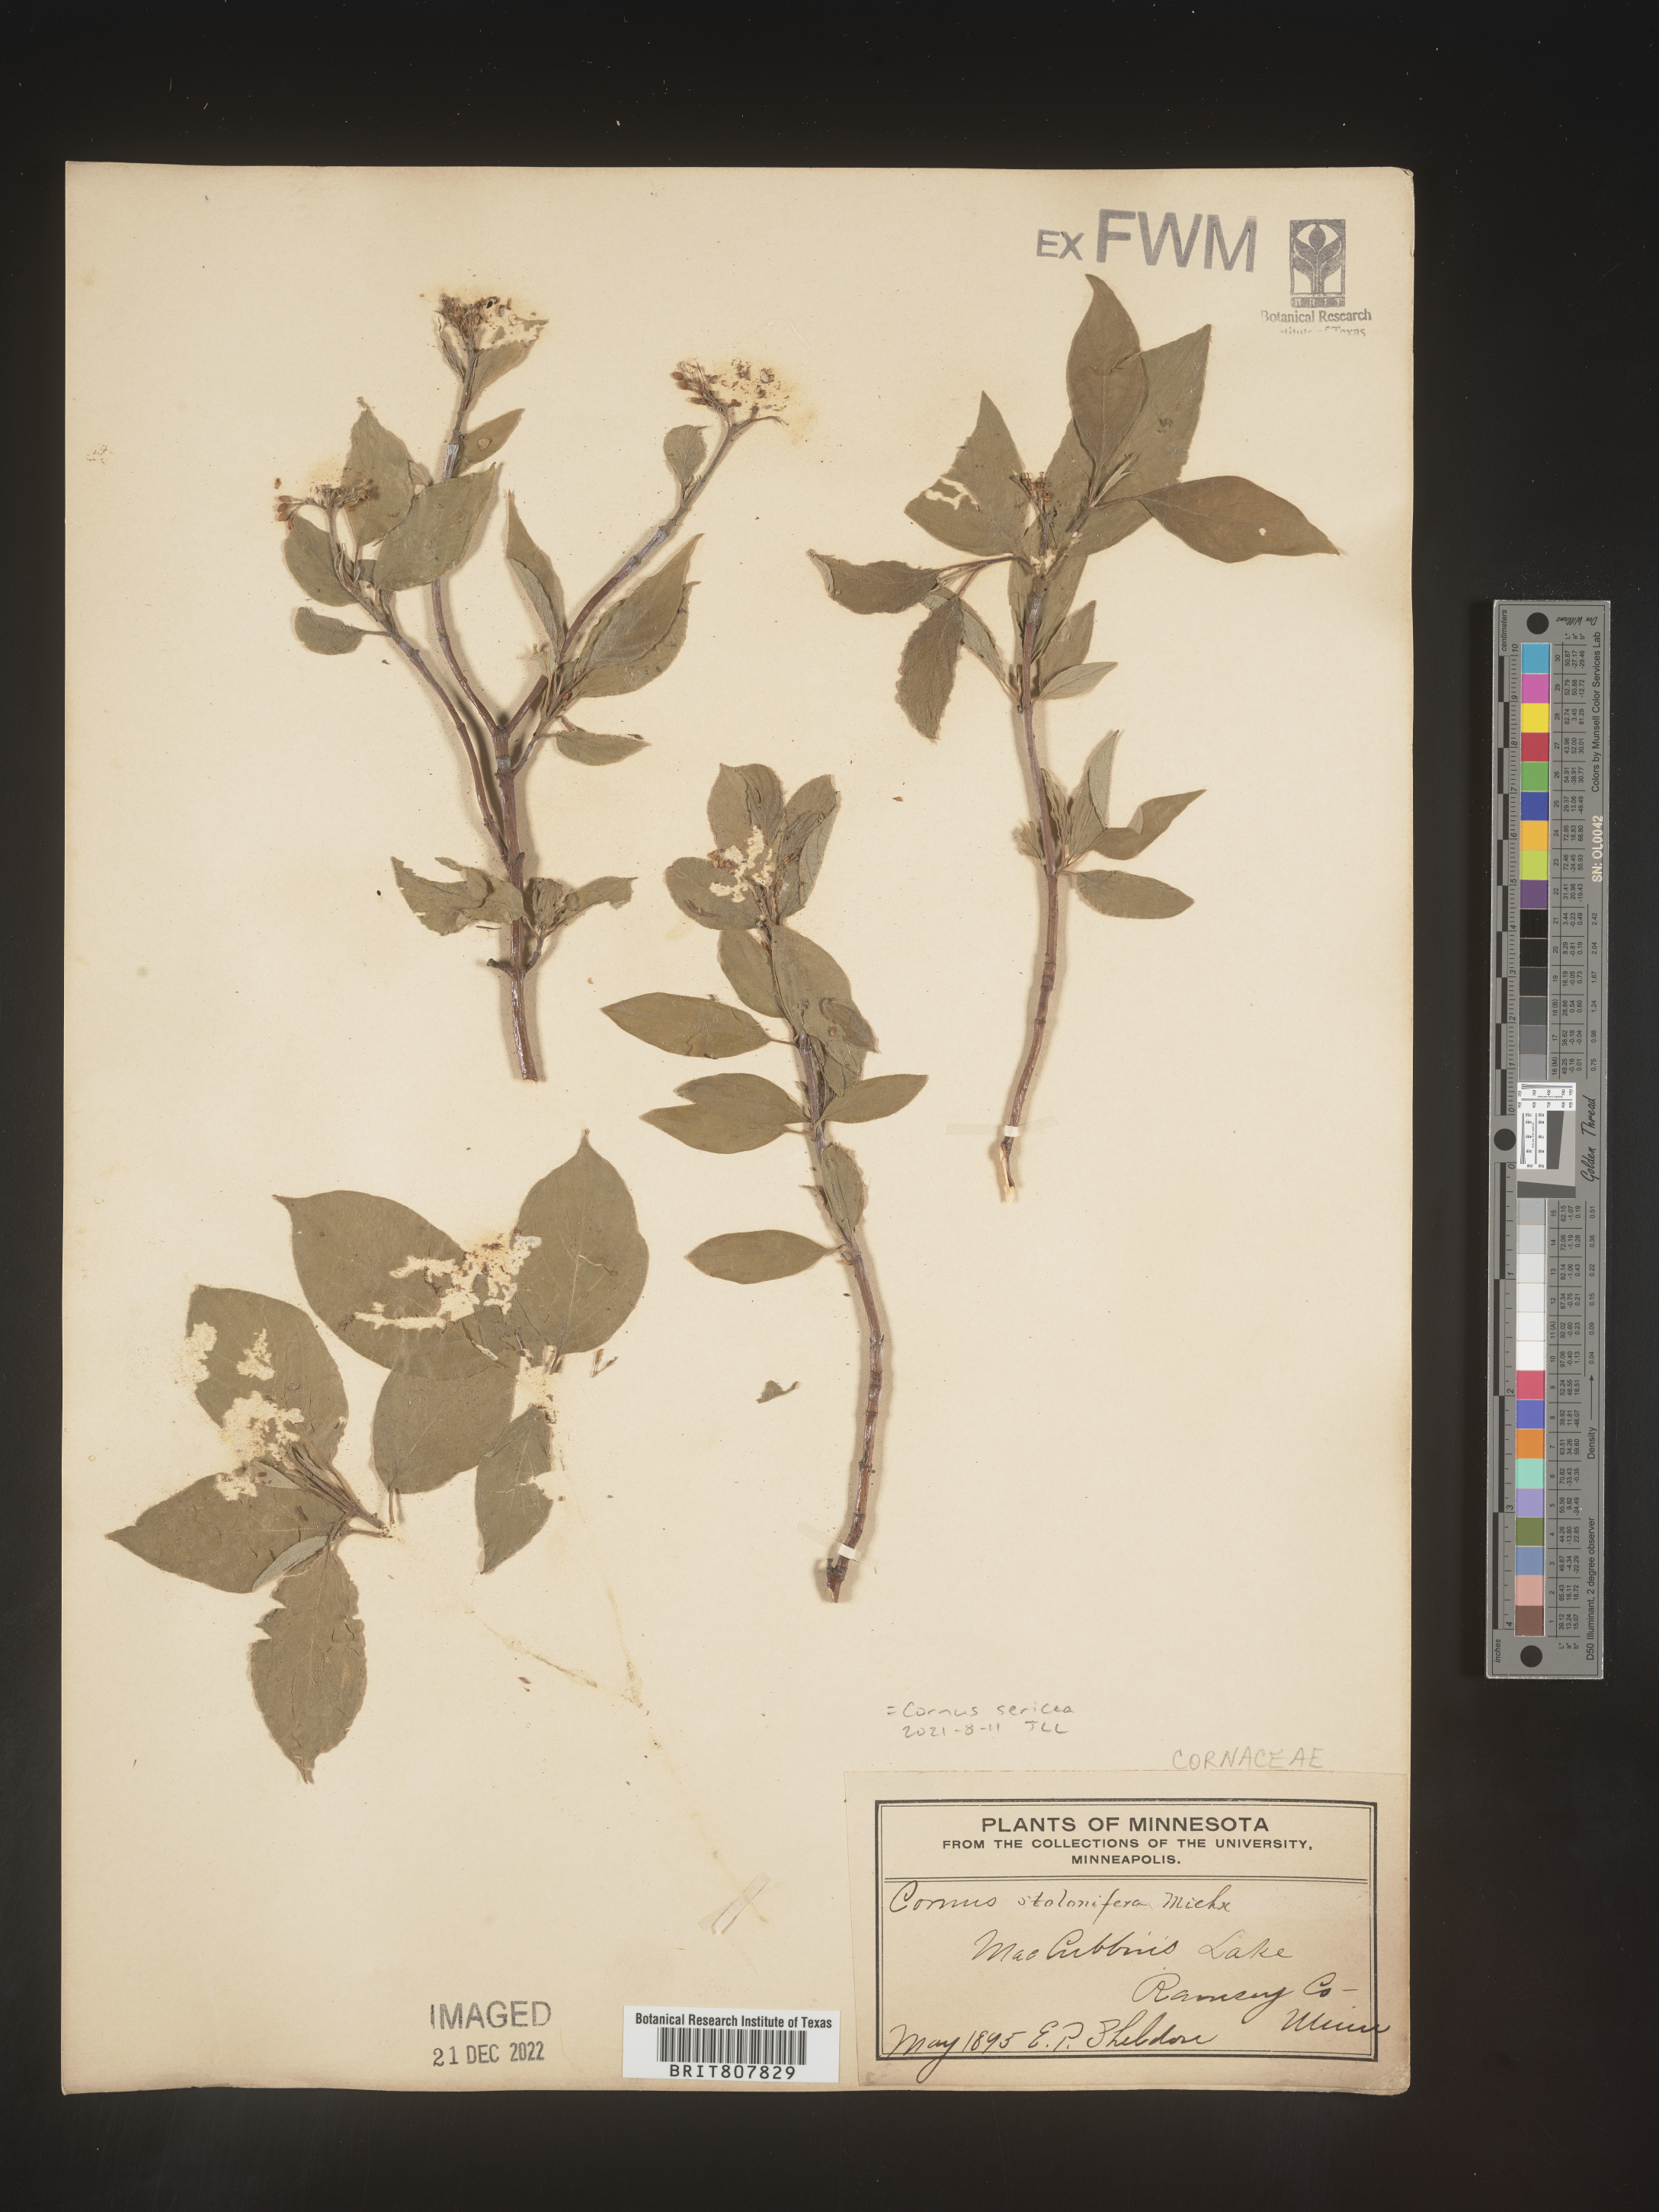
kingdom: Plantae
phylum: Tracheophyta
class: Magnoliopsida
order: Cornales
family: Cornaceae
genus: Cornus
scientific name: Cornus
